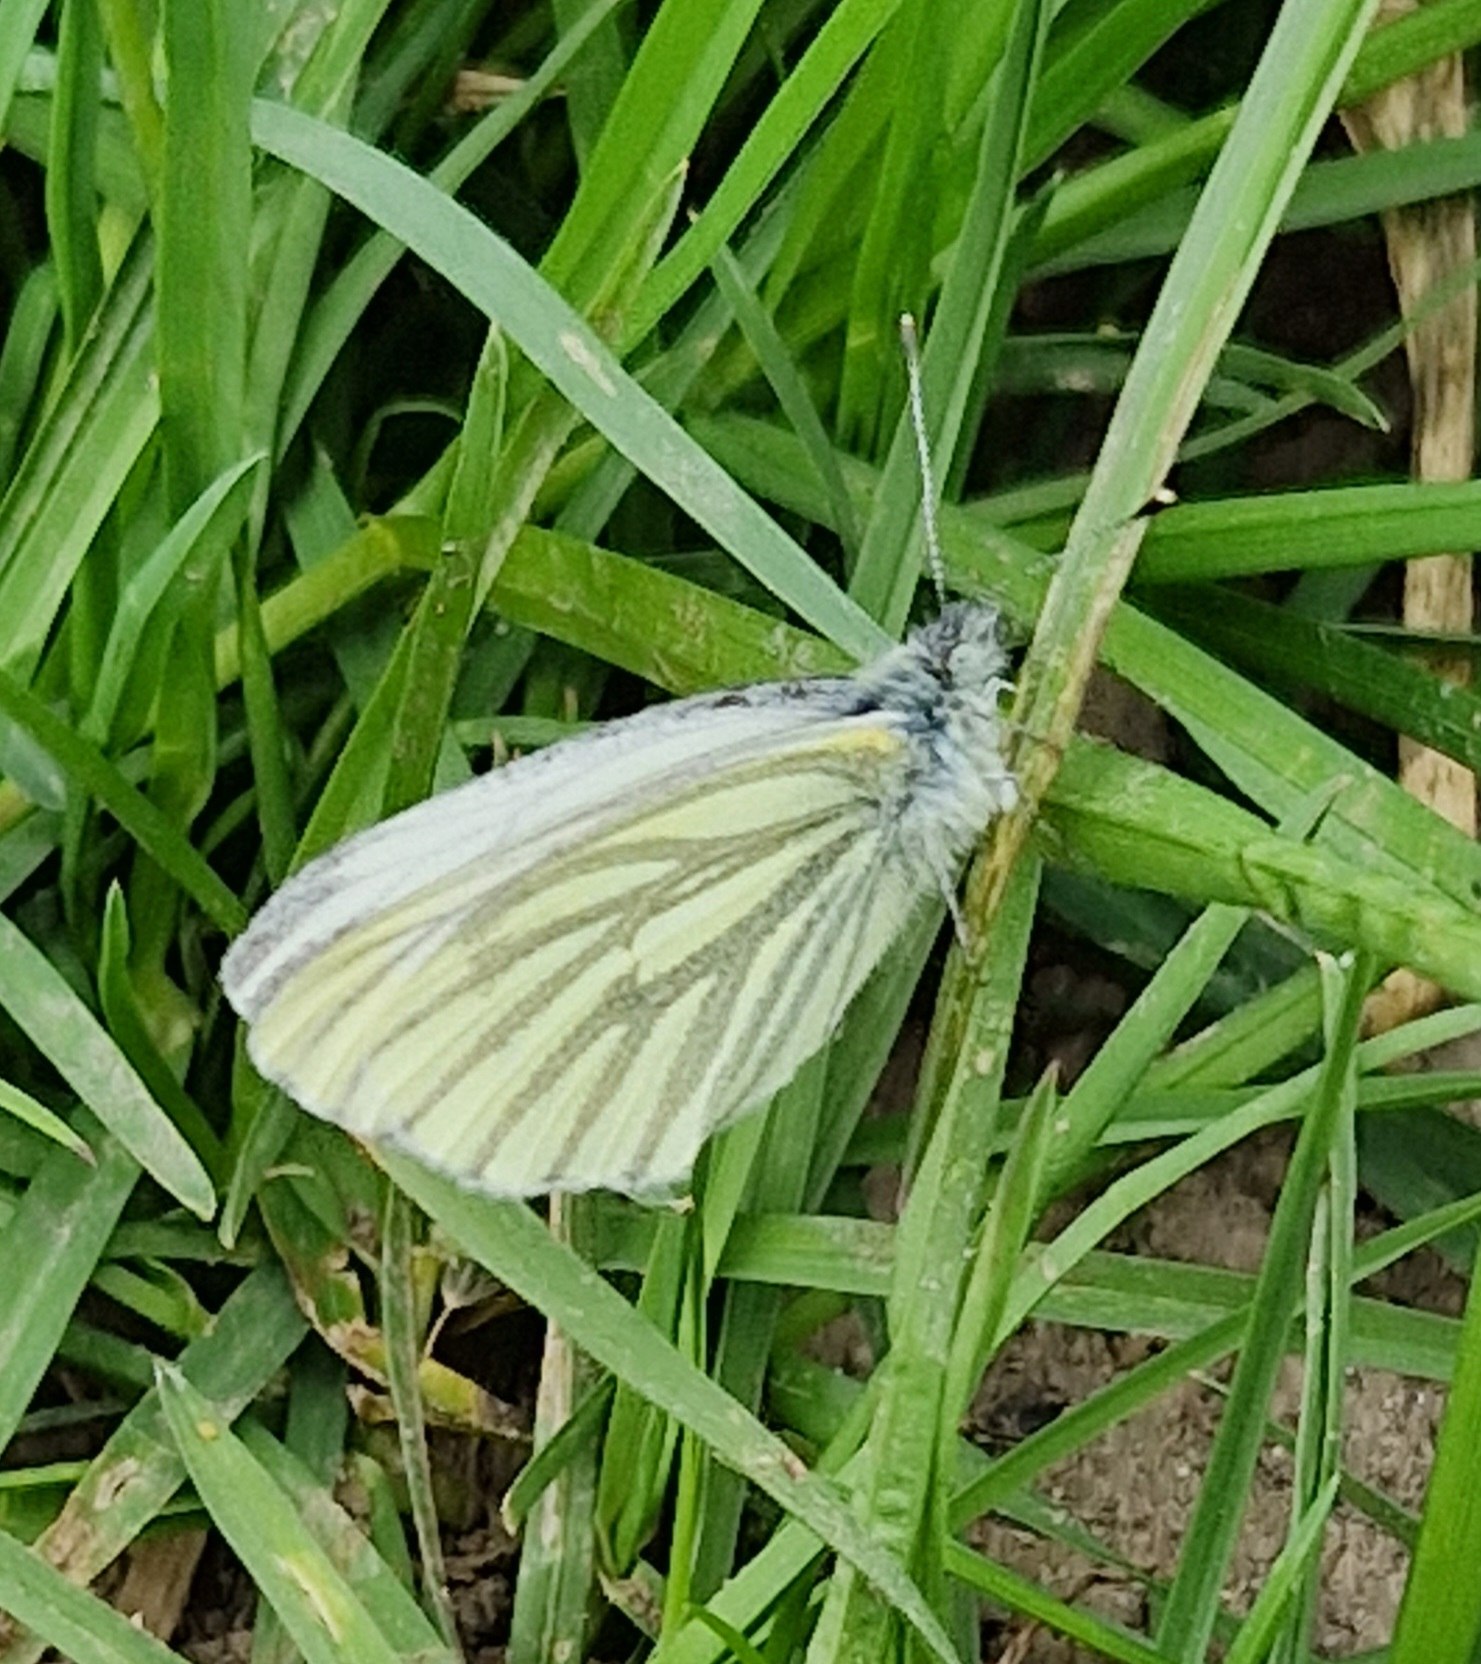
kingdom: Animalia
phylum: Arthropoda
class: Insecta
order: Lepidoptera
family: Pieridae
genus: Pieris
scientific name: Pieris napi
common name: Grønåret kålsommerfugl
